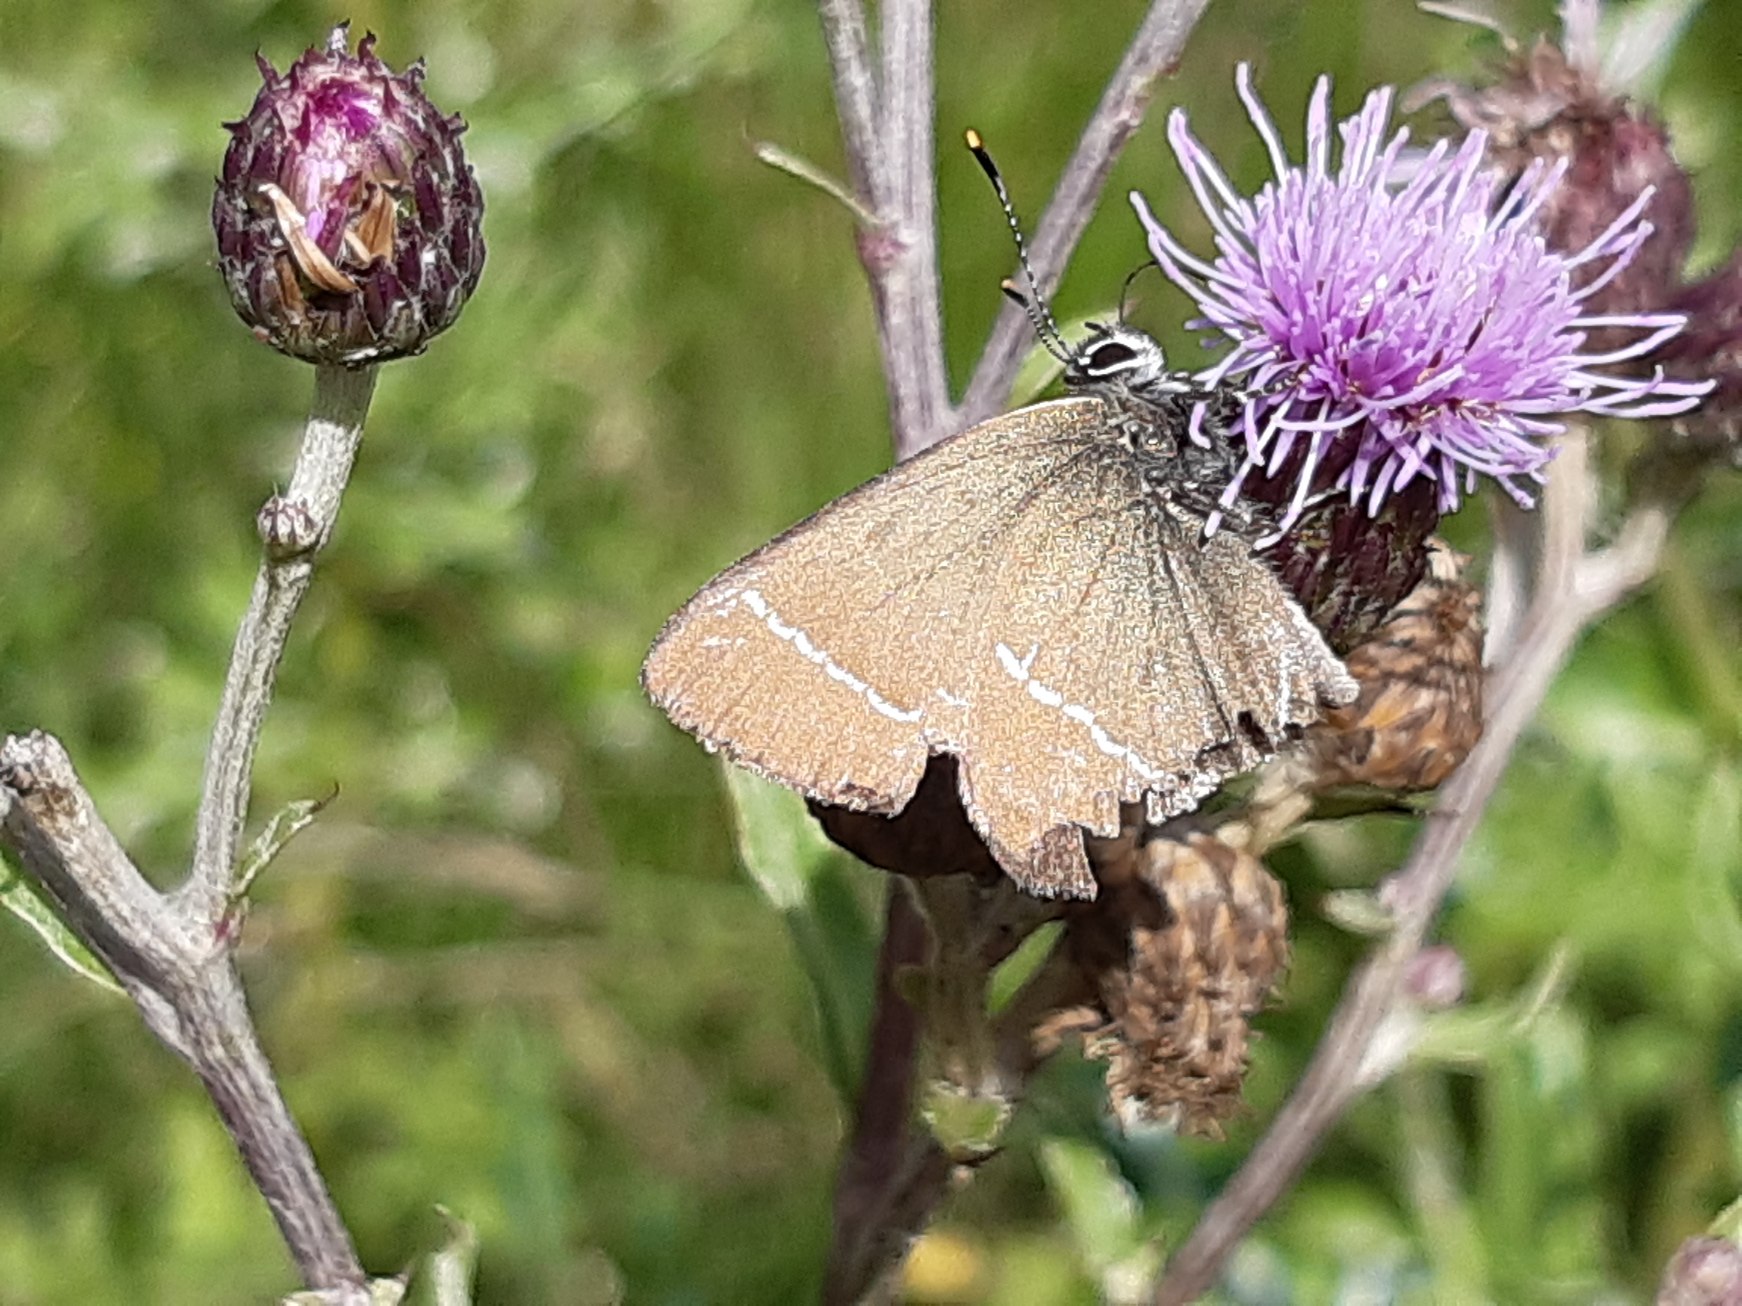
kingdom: Animalia
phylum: Arthropoda
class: Insecta
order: Lepidoptera
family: Lycaenidae
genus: Satyrium
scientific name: Satyrium w-album
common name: Det hvide W
